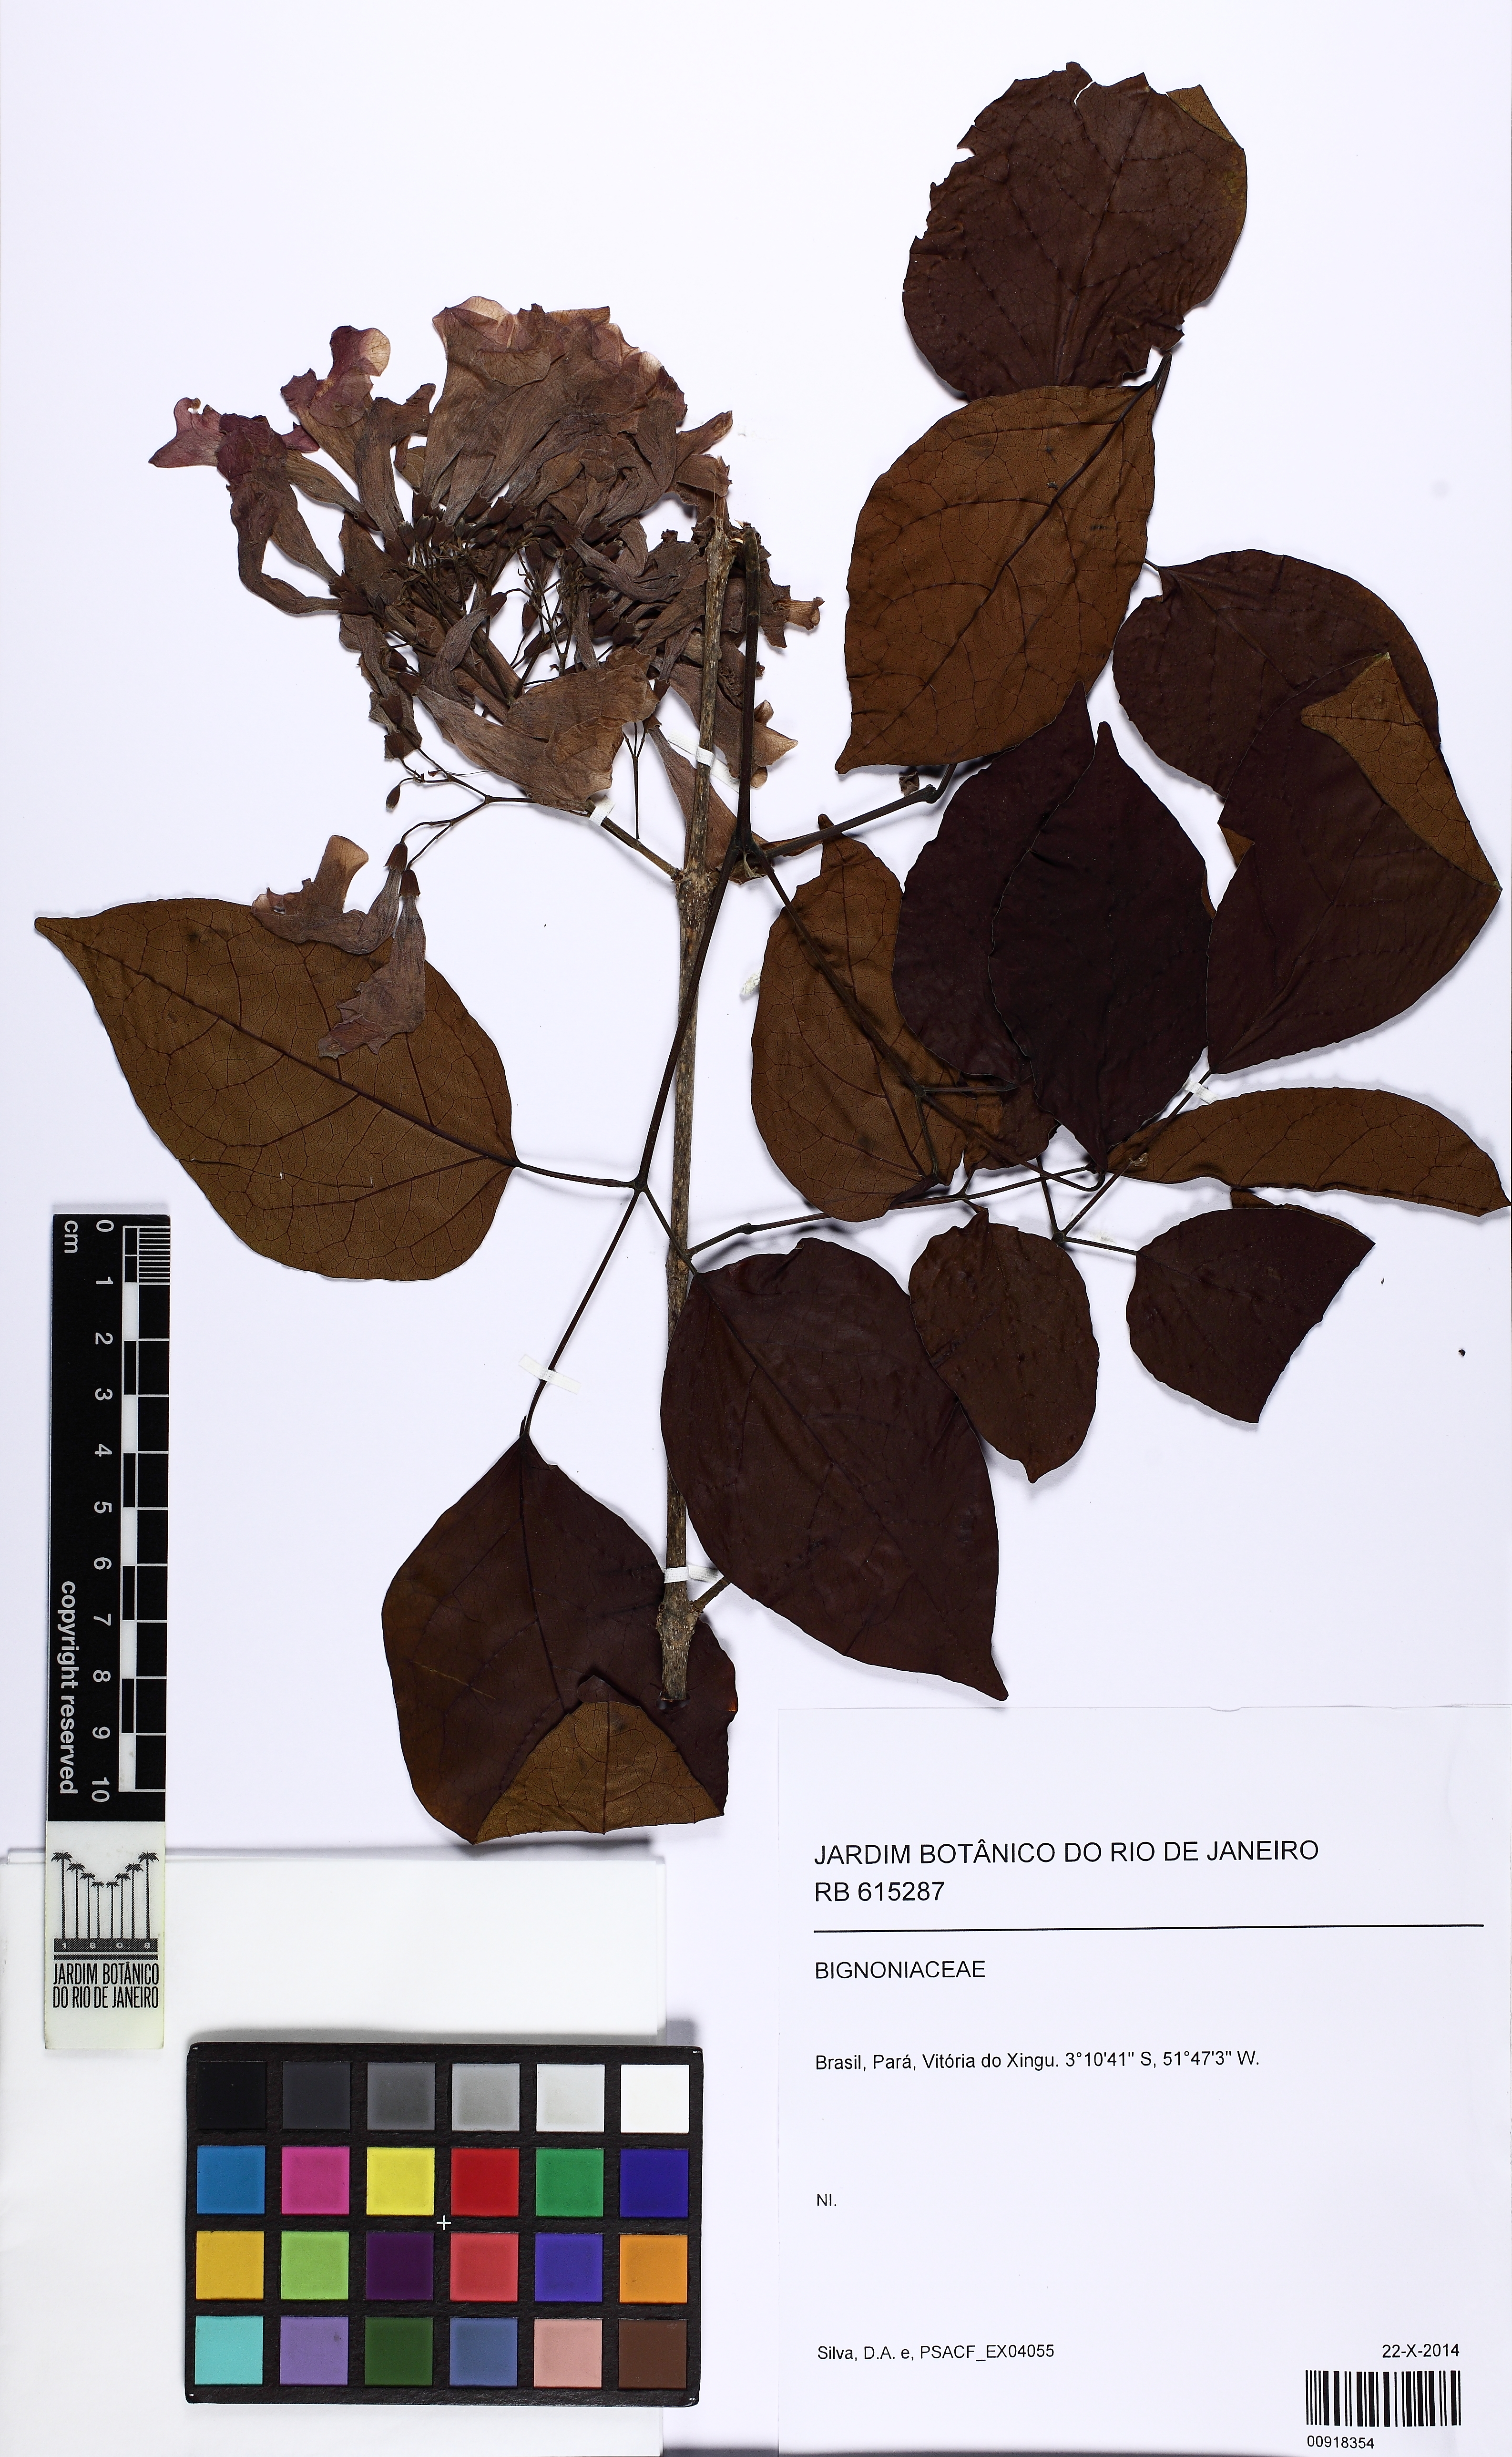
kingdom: Plantae
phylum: Tracheophyta
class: Magnoliopsida
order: Lamiales
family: Bignoniaceae
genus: Cuspidaria
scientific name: Cuspidaria lateriflora
